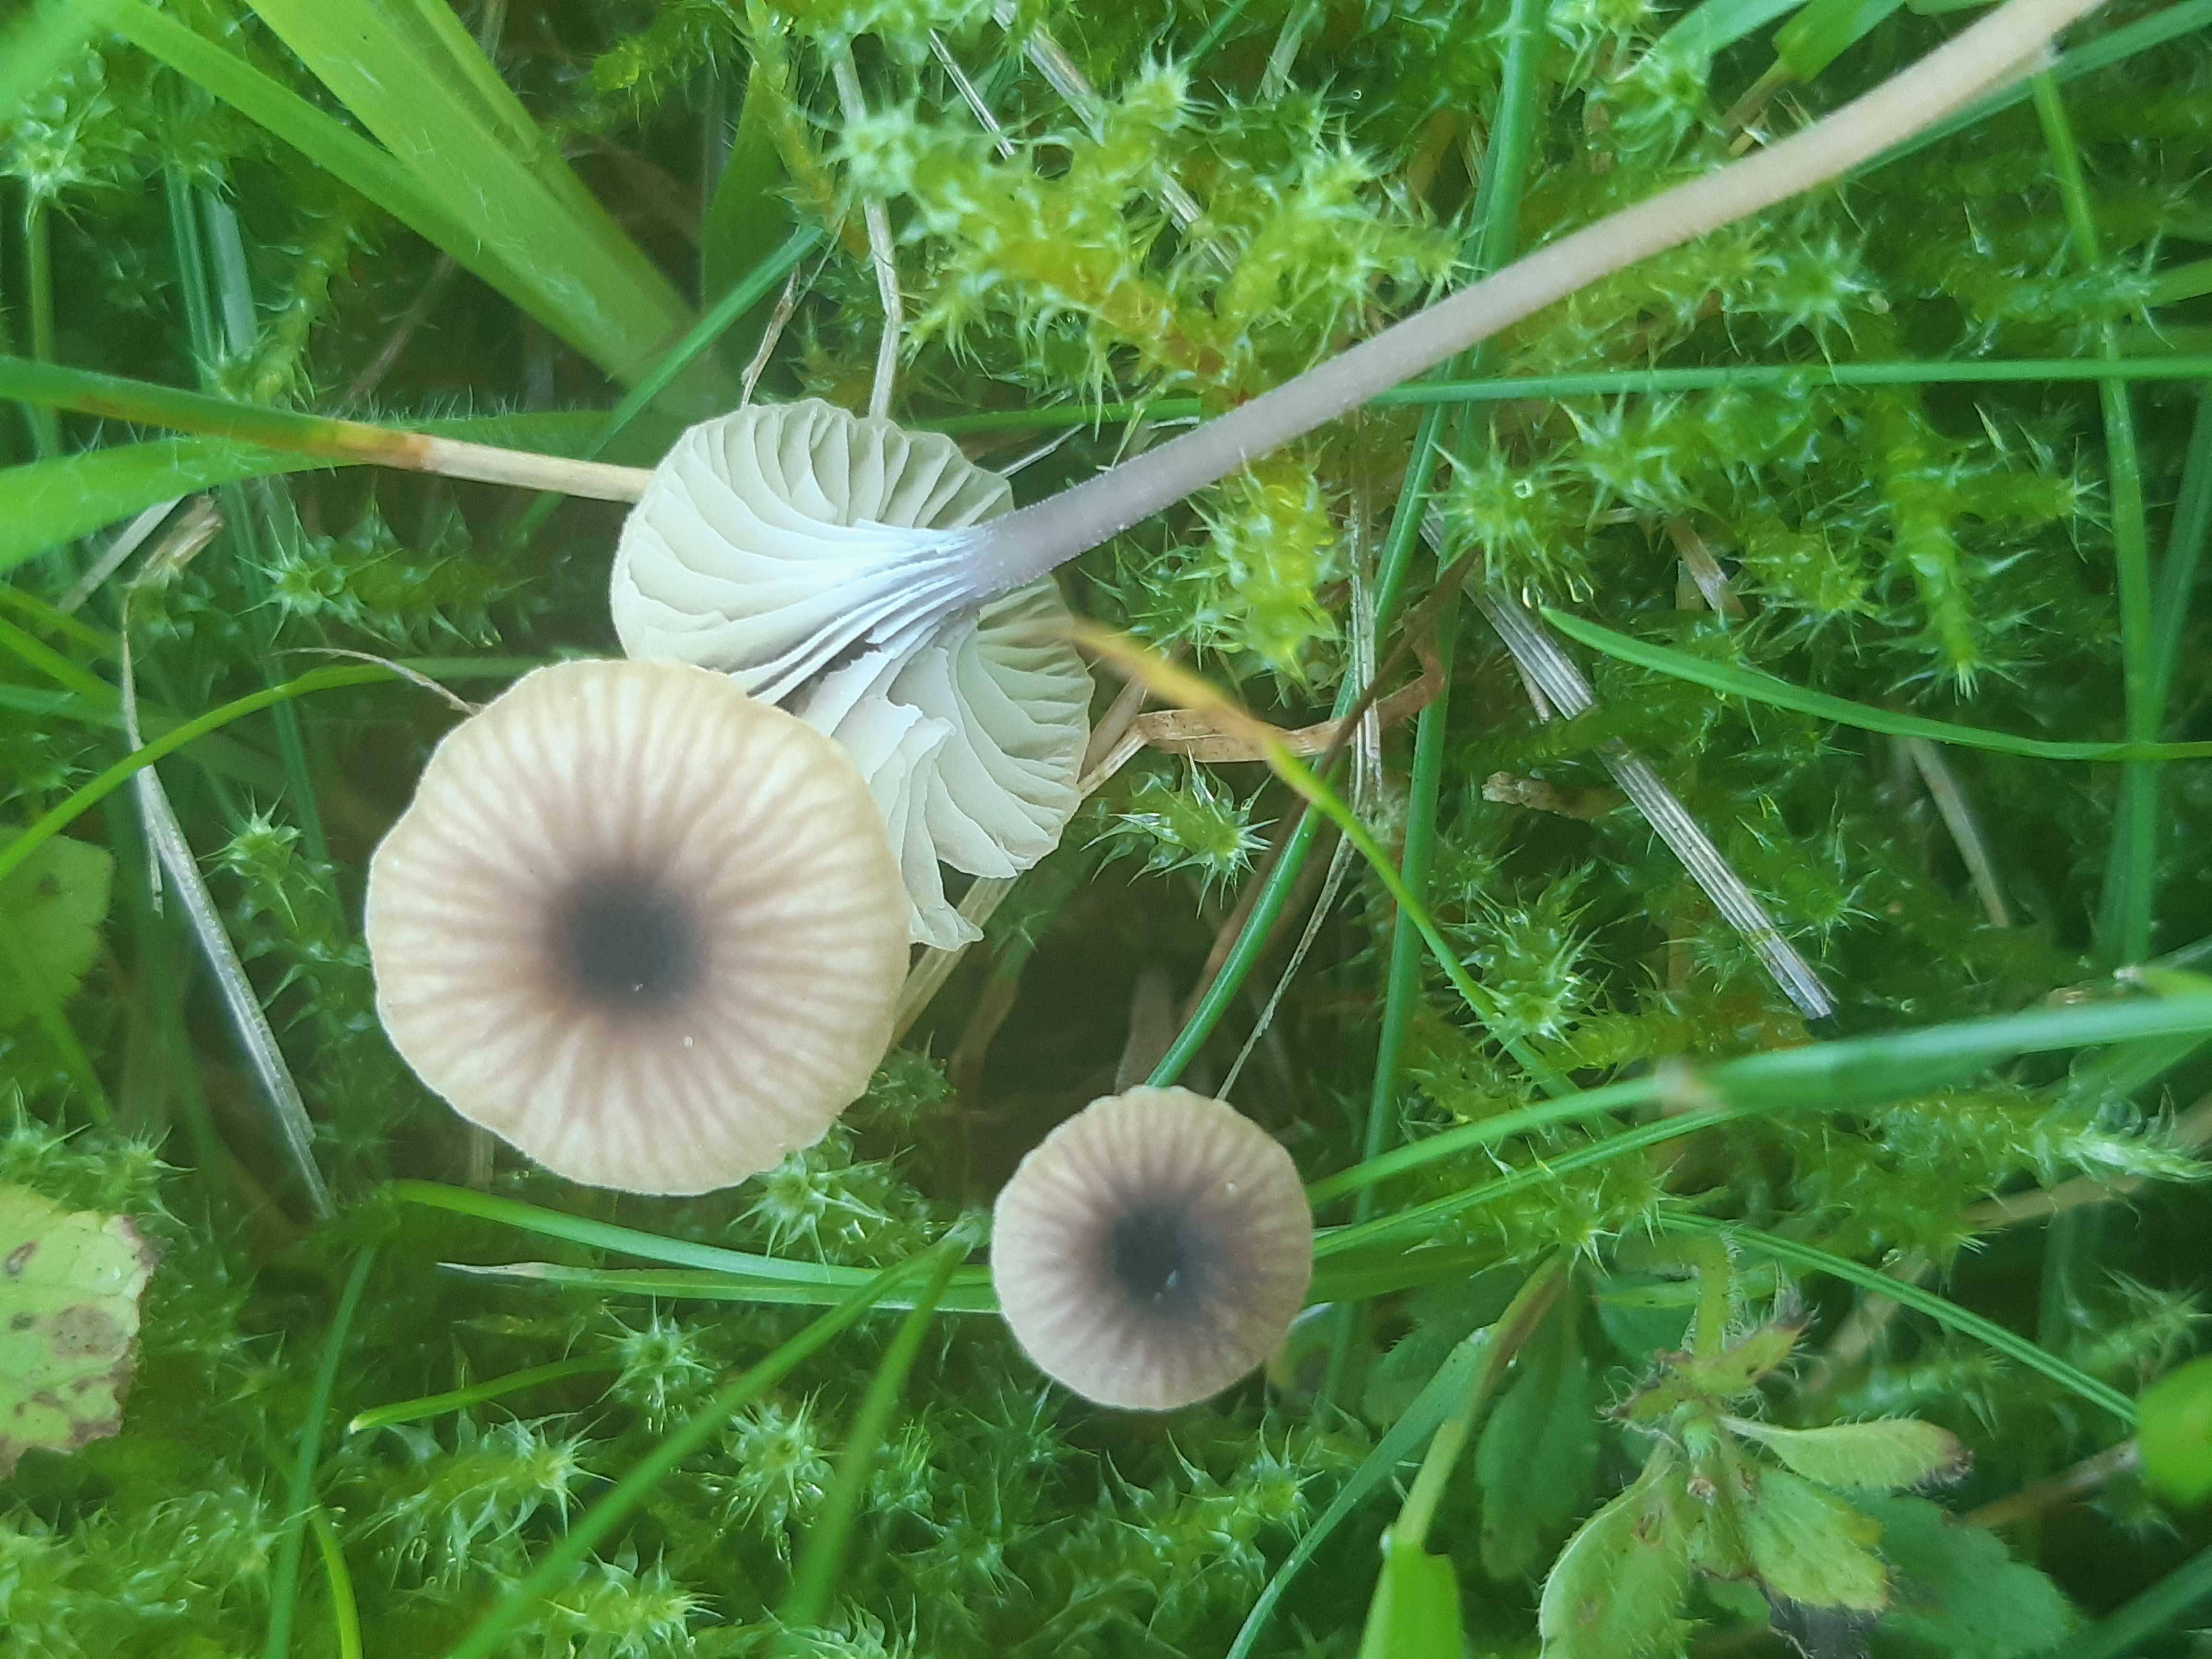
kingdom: Fungi
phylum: Basidiomycota
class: Agaricomycetes
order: Hymenochaetales
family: Rickenellaceae
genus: Rickenella
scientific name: Rickenella swartzii
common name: finstokket mosnavlehat
